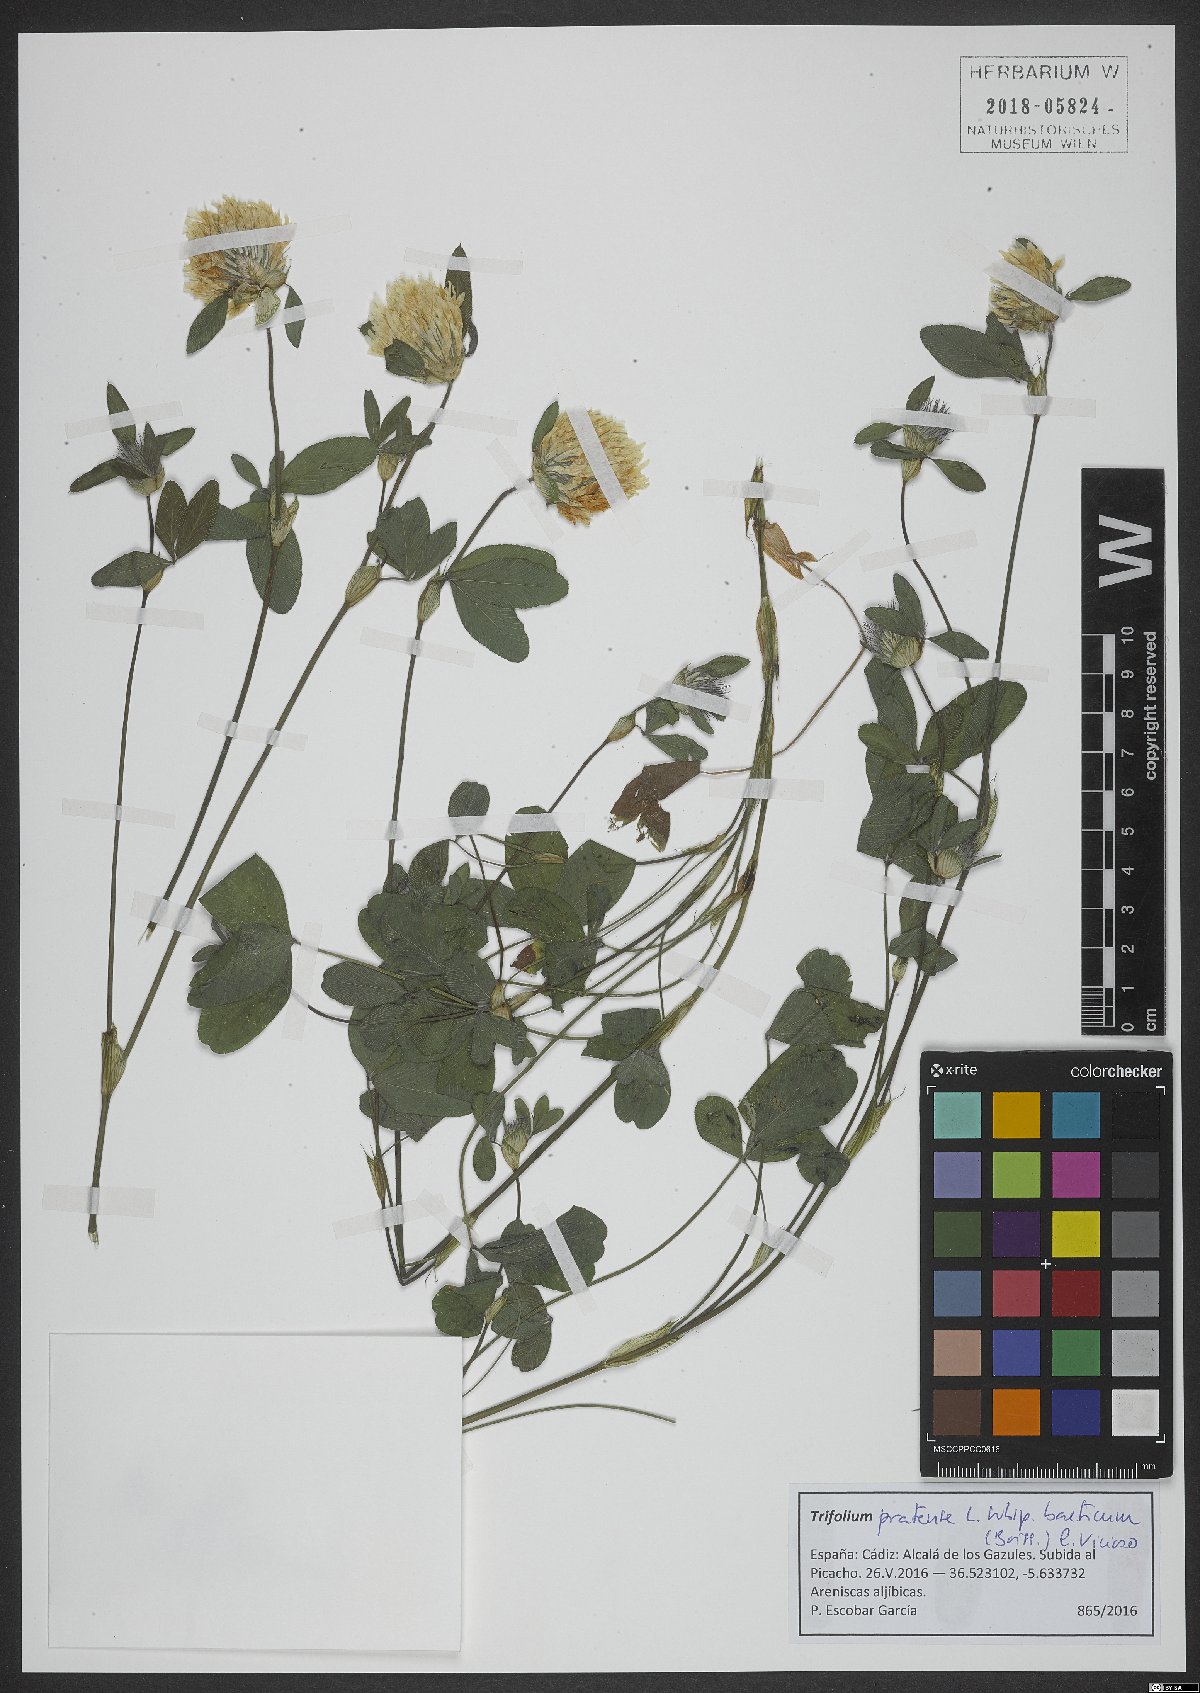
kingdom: Plantae
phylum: Tracheophyta
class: Magnoliopsida
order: Fabales
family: Fabaceae
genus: Trifolium
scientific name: Trifolium pratense
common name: Red clover
